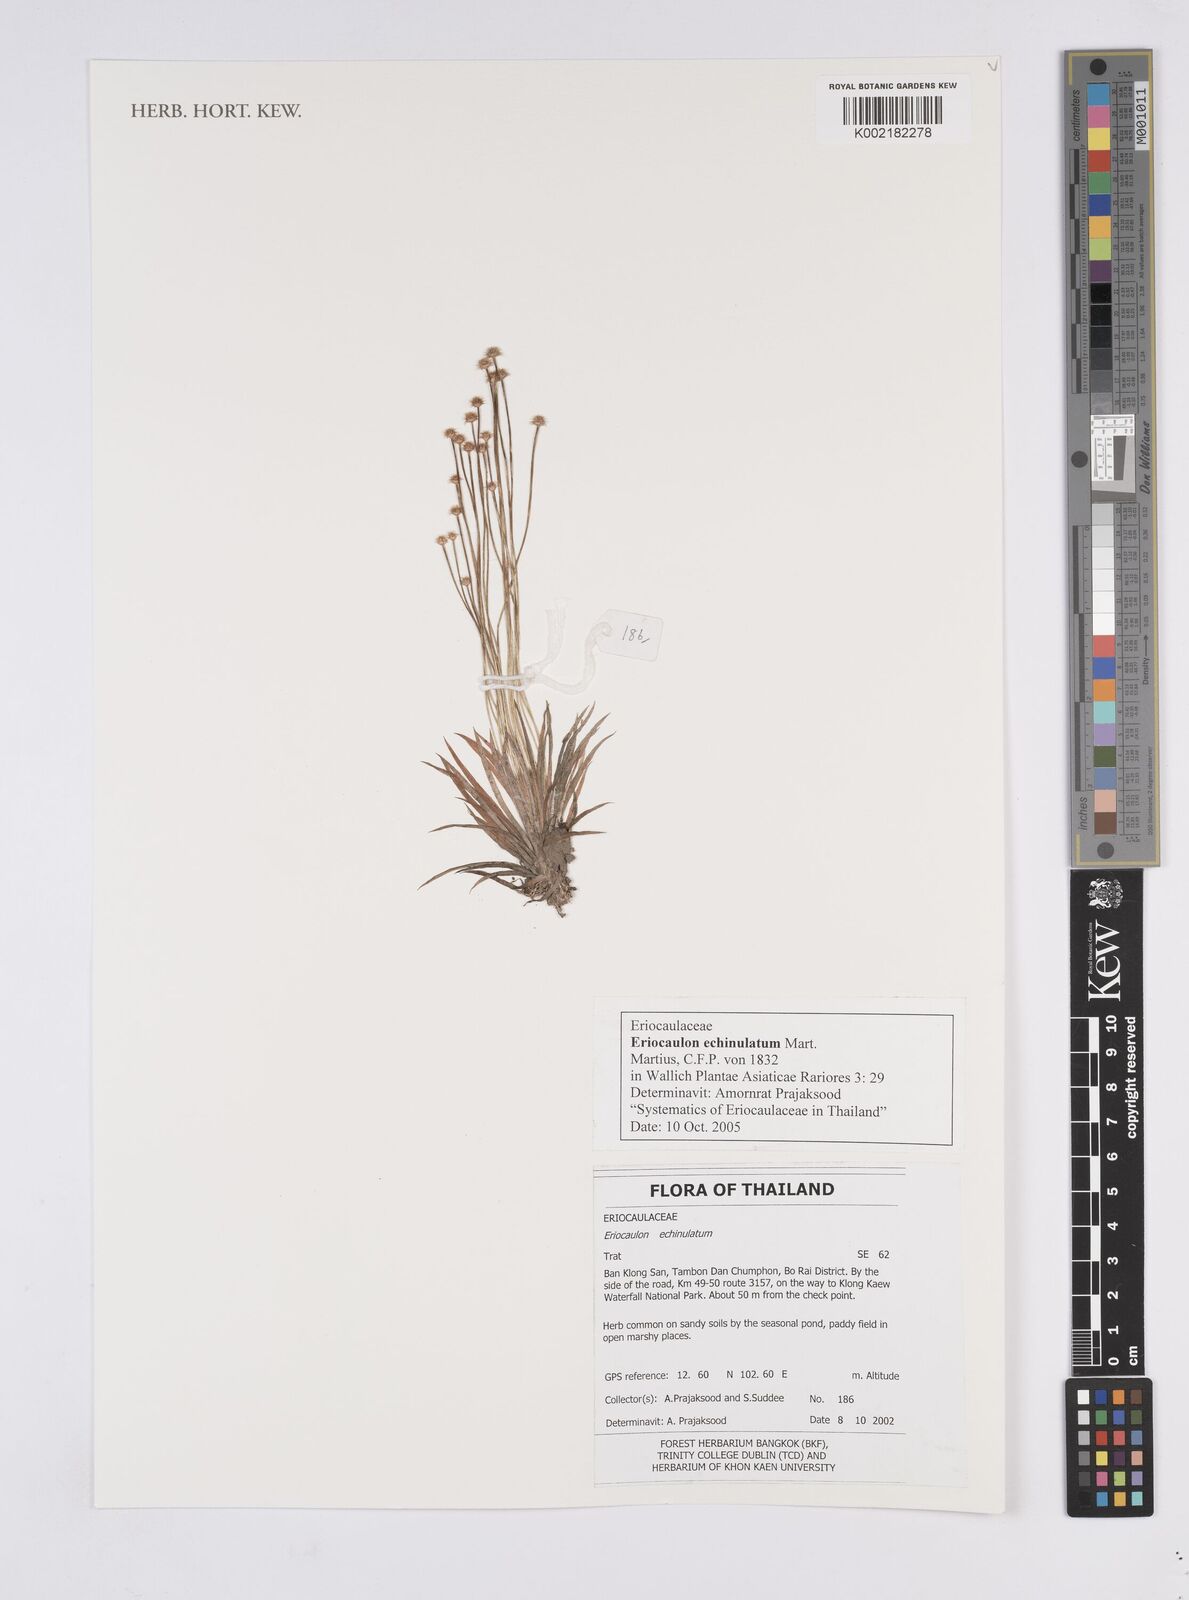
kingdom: Plantae
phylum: Tracheophyta
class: Liliopsida
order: Poales
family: Eriocaulaceae
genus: Eriocaulon
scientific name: Eriocaulon echinulatum
